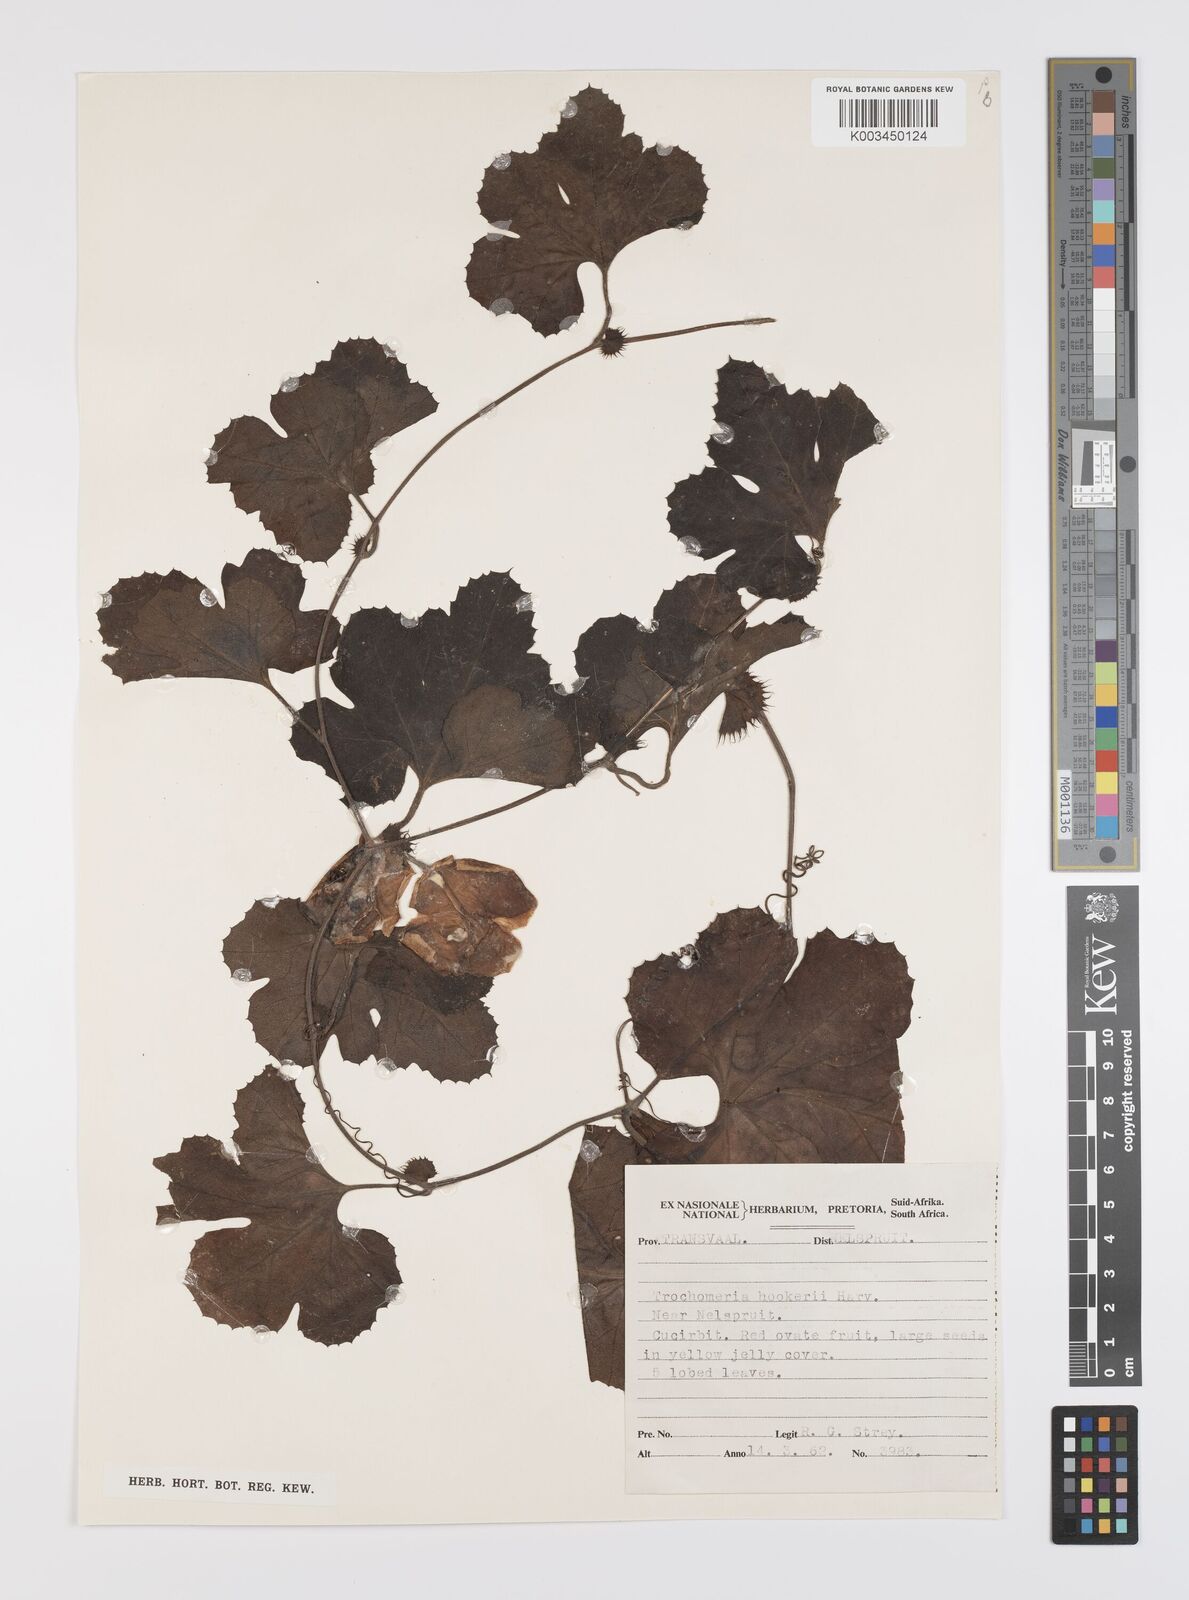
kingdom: Plantae
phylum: Tracheophyta
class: Magnoliopsida
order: Cucurbitales
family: Cucurbitaceae
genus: Trochomeria
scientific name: Trochomeria hookeri
